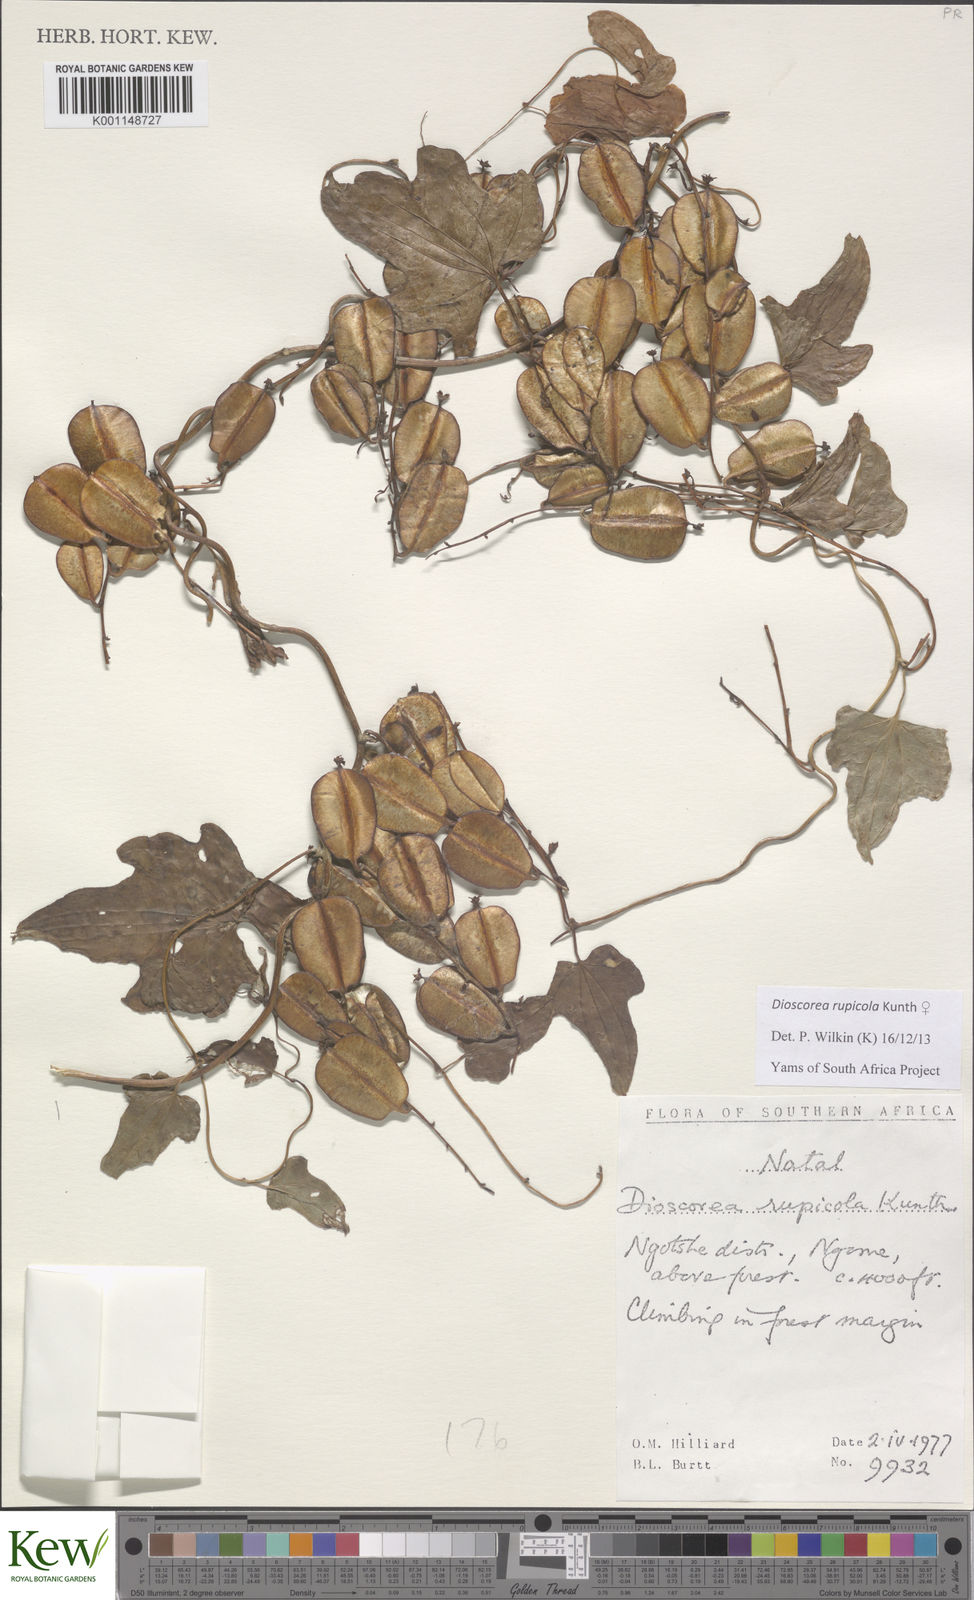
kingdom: Plantae
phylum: Tracheophyta
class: Liliopsida
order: Dioscoreales
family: Dioscoreaceae
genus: Dioscorea
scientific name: Dioscorea multiloba
